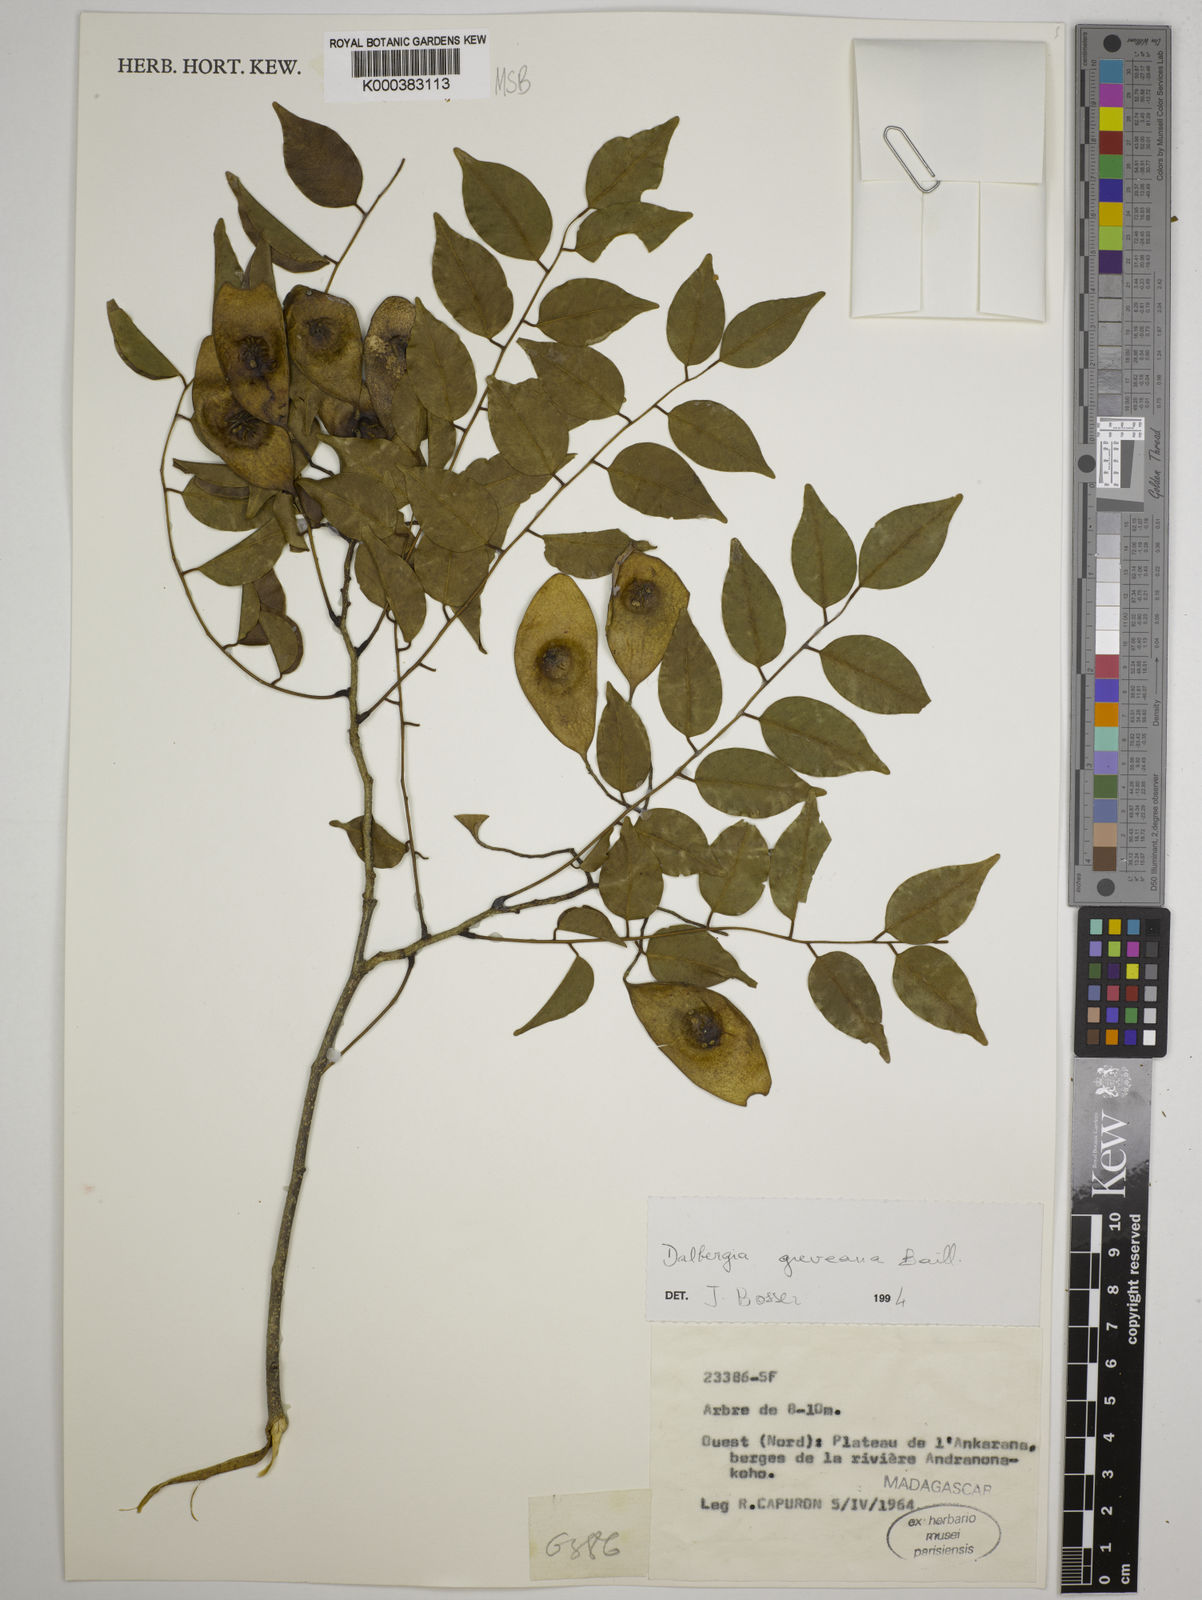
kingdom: Plantae
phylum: Tracheophyta
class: Magnoliopsida
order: Fabales
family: Fabaceae
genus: Dalbergia
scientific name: Dalbergia greveana
